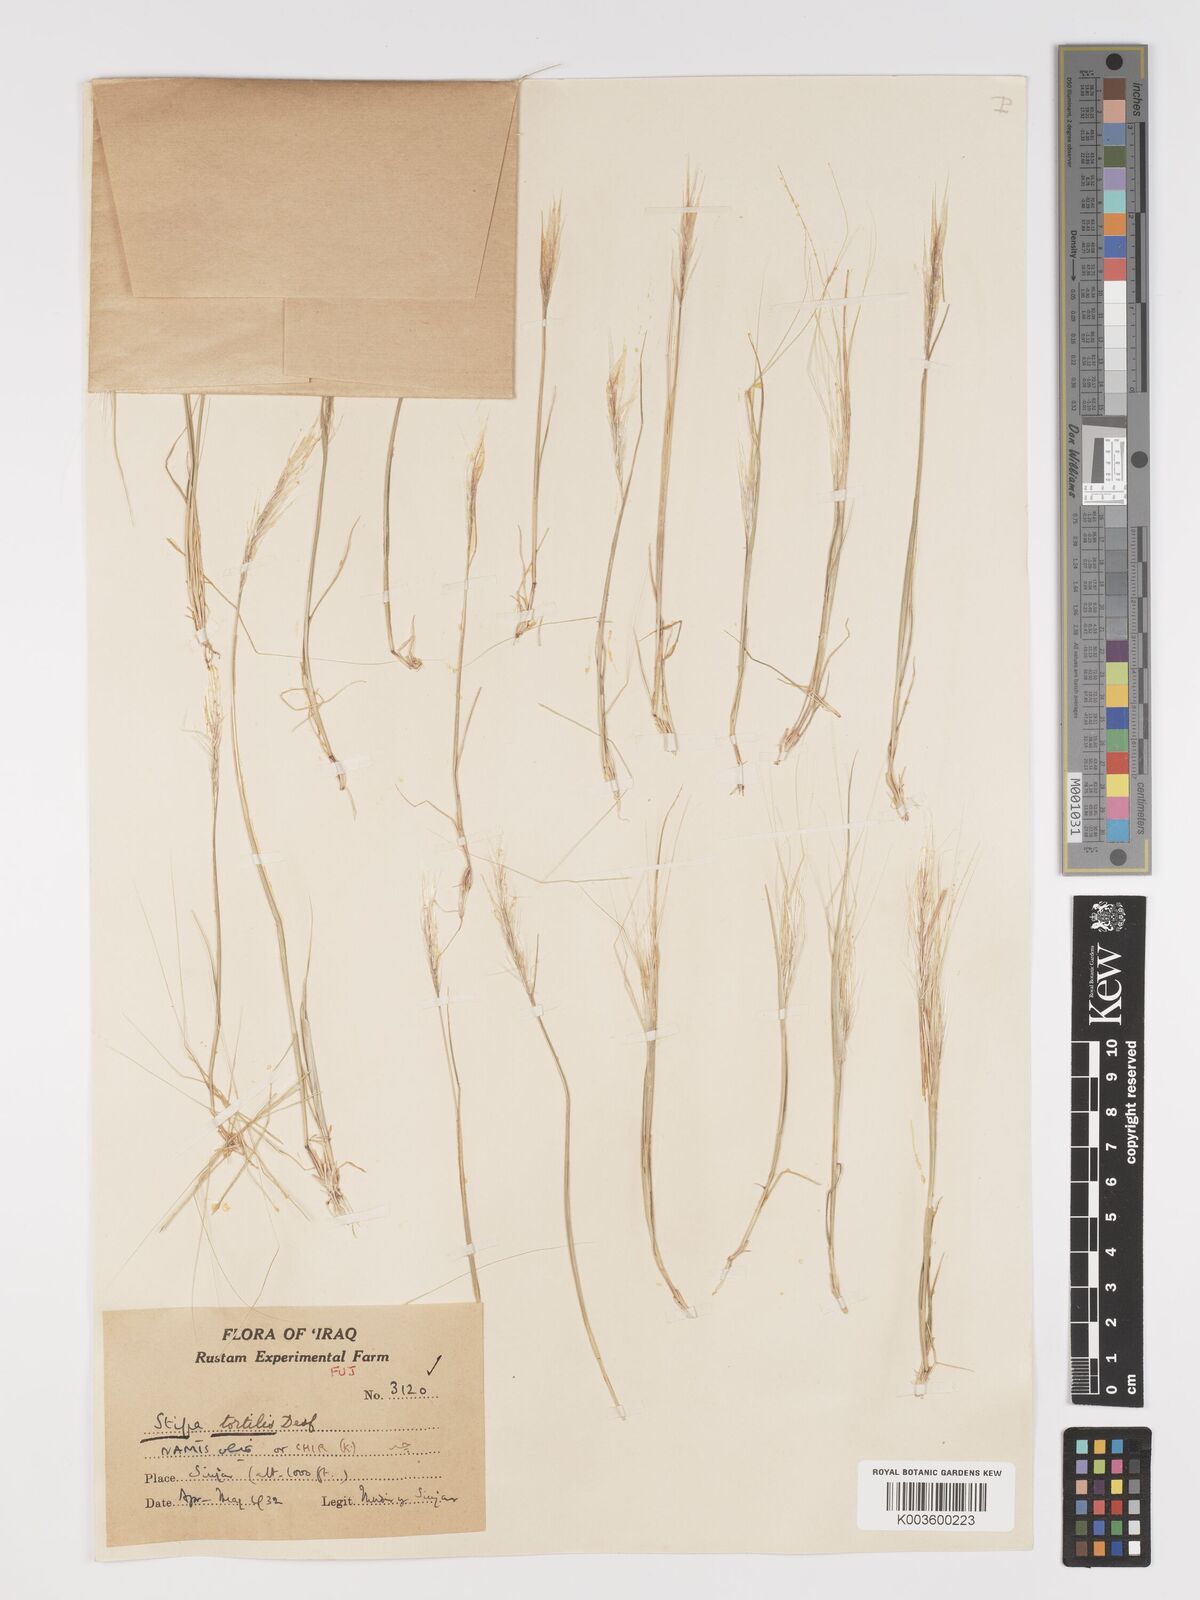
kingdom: Plantae
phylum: Tracheophyta
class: Liliopsida
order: Poales
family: Poaceae
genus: Stipellula
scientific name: Stipellula capensis
